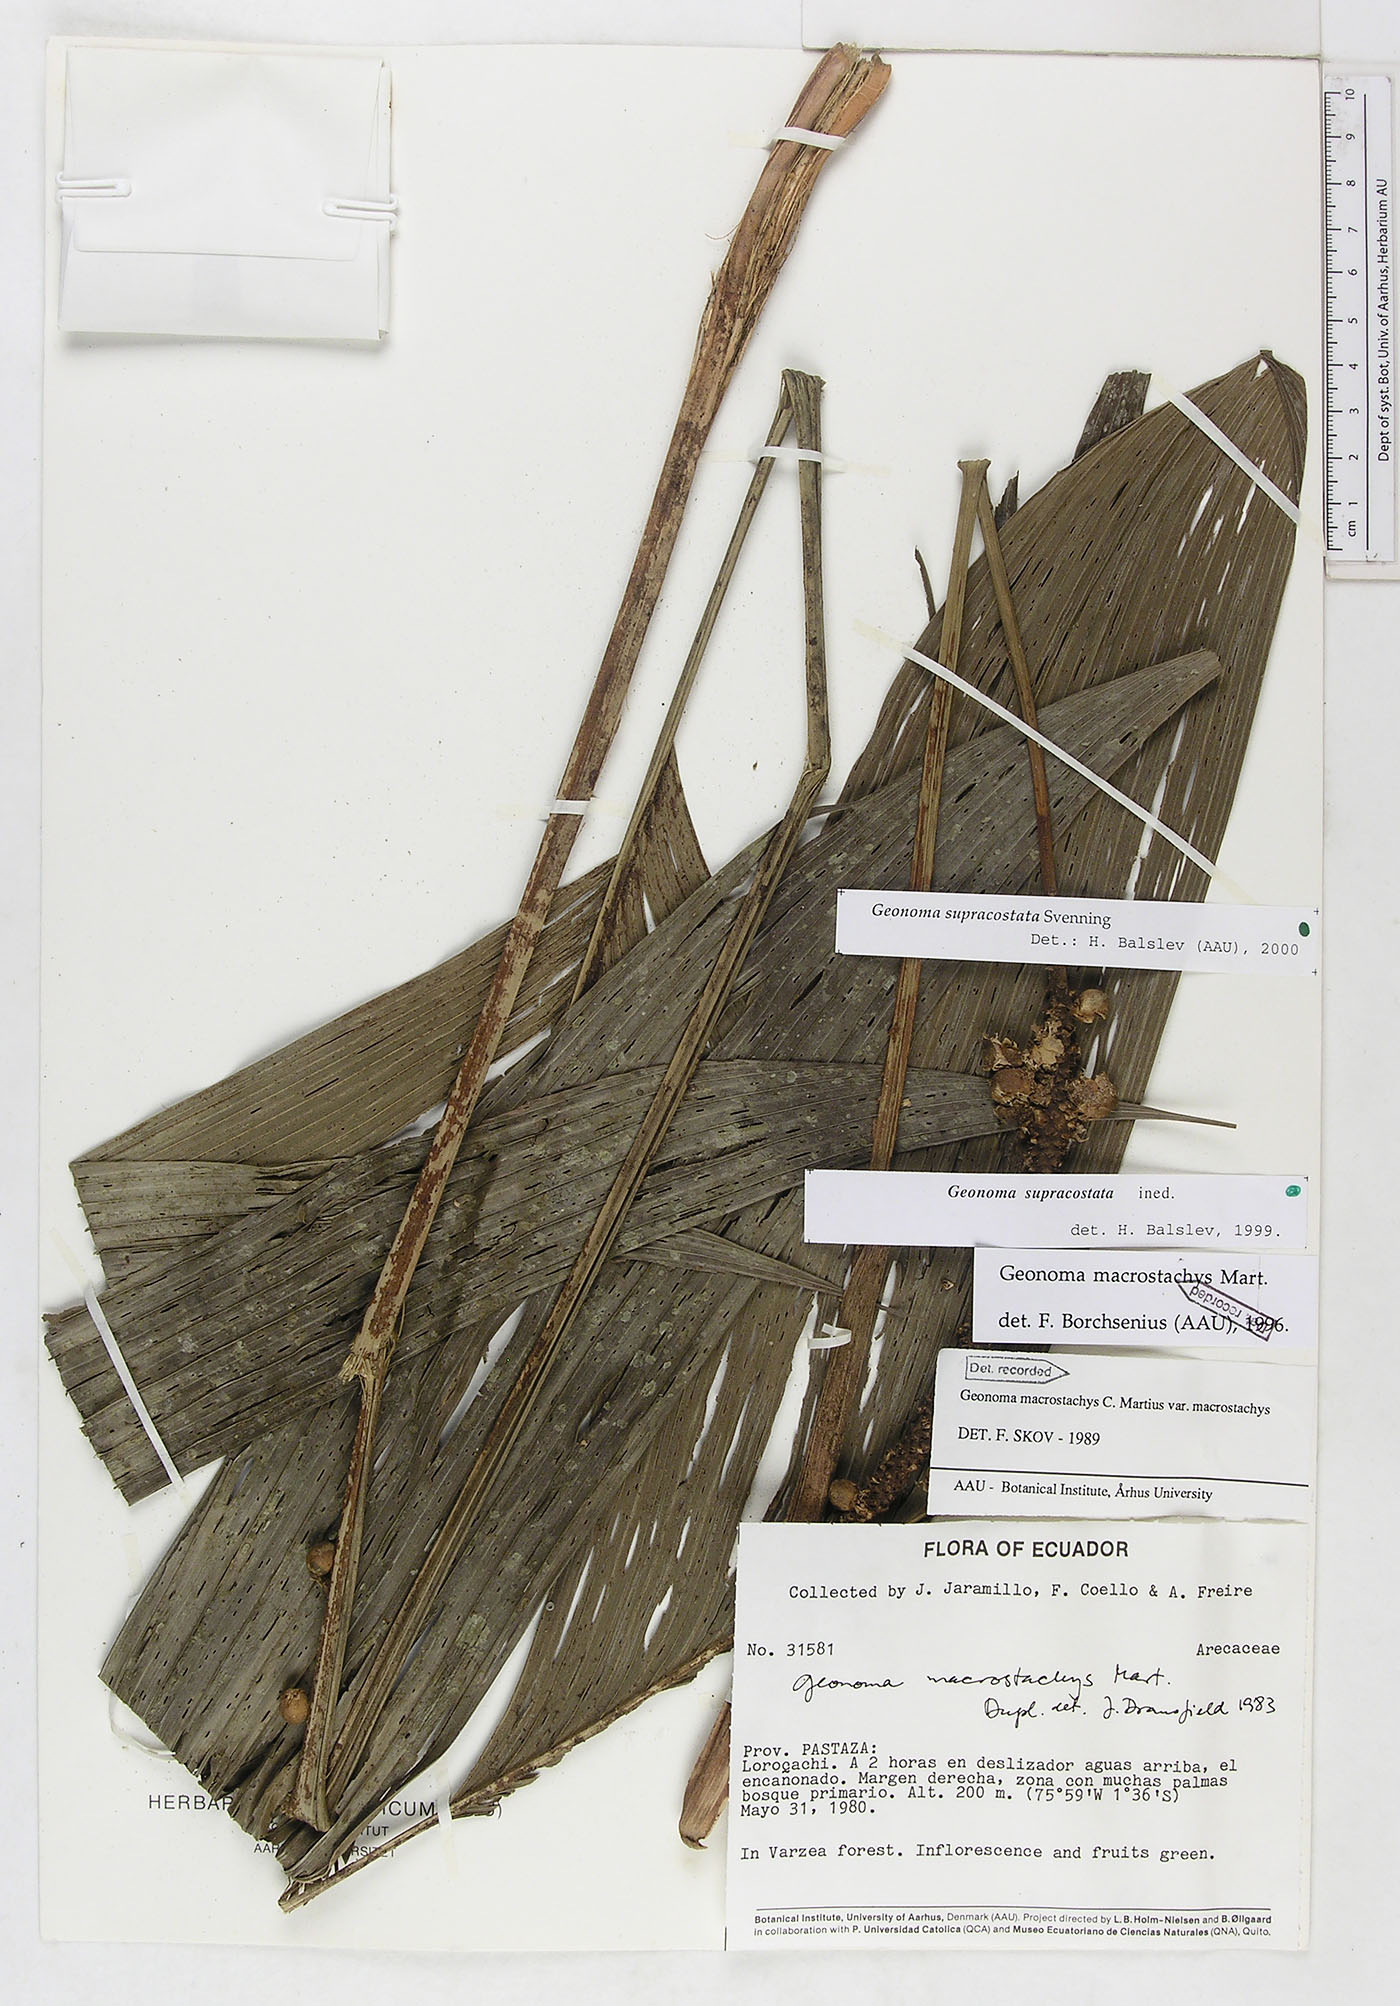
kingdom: Plantae
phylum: Tracheophyta
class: Liliopsida
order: Arecales
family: Arecaceae
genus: Geonoma
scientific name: Geonoma macrostachys
